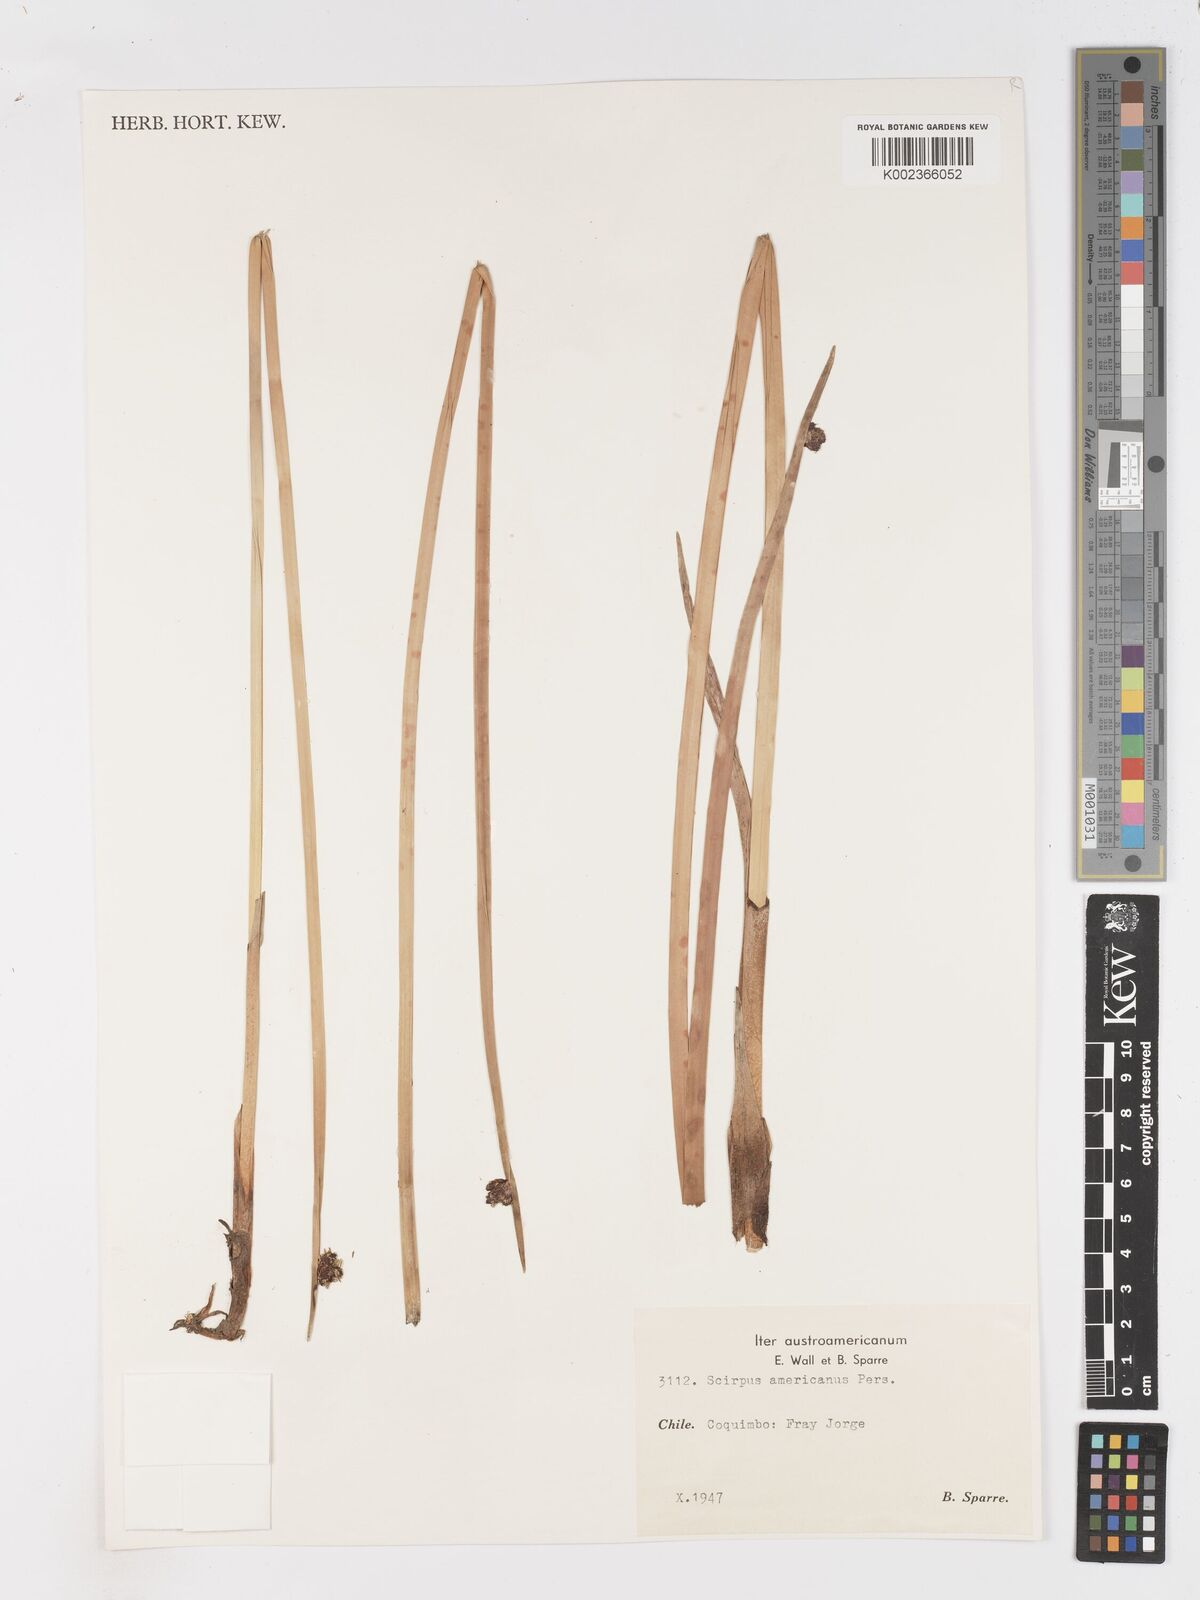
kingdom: Plantae
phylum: Tracheophyta
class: Liliopsida
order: Poales
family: Cyperaceae
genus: Schoenoplectus
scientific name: Schoenoplectus americanus
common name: American three-square bulrush
